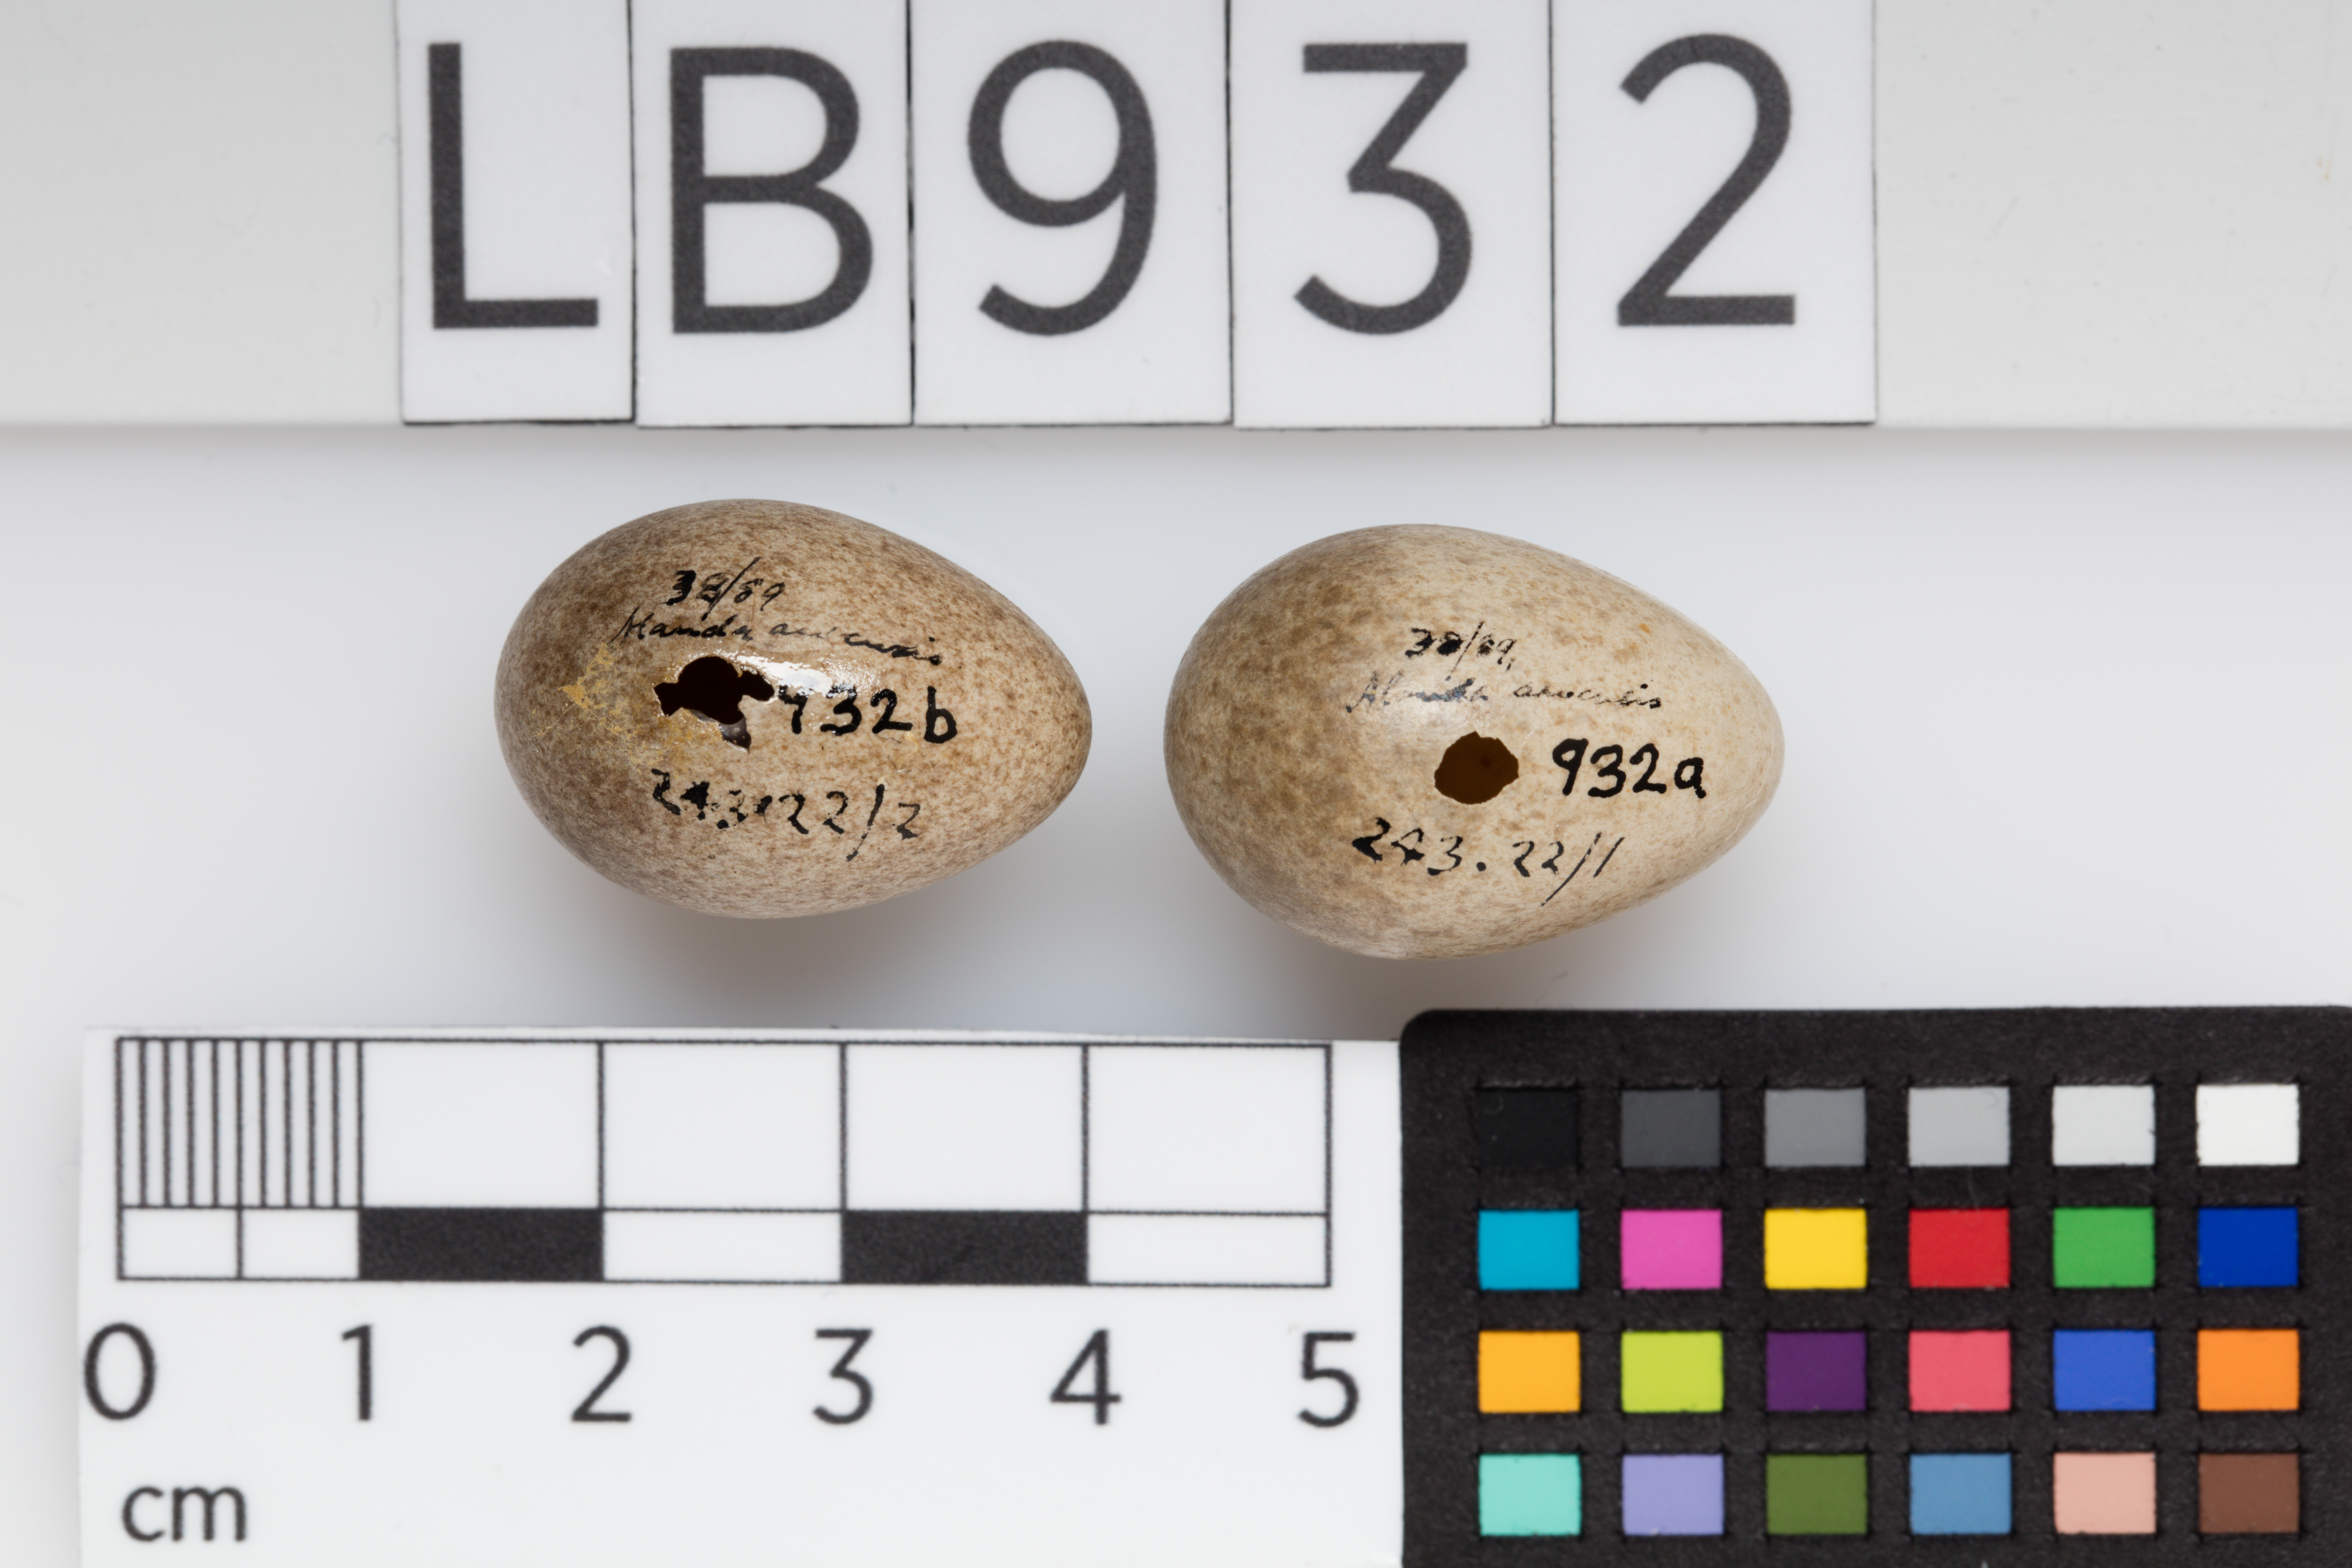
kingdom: Animalia
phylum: Chordata
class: Aves
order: Passeriformes
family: Alaudidae
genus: Alauda
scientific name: Alauda arvensis
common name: Eurasian skylark
